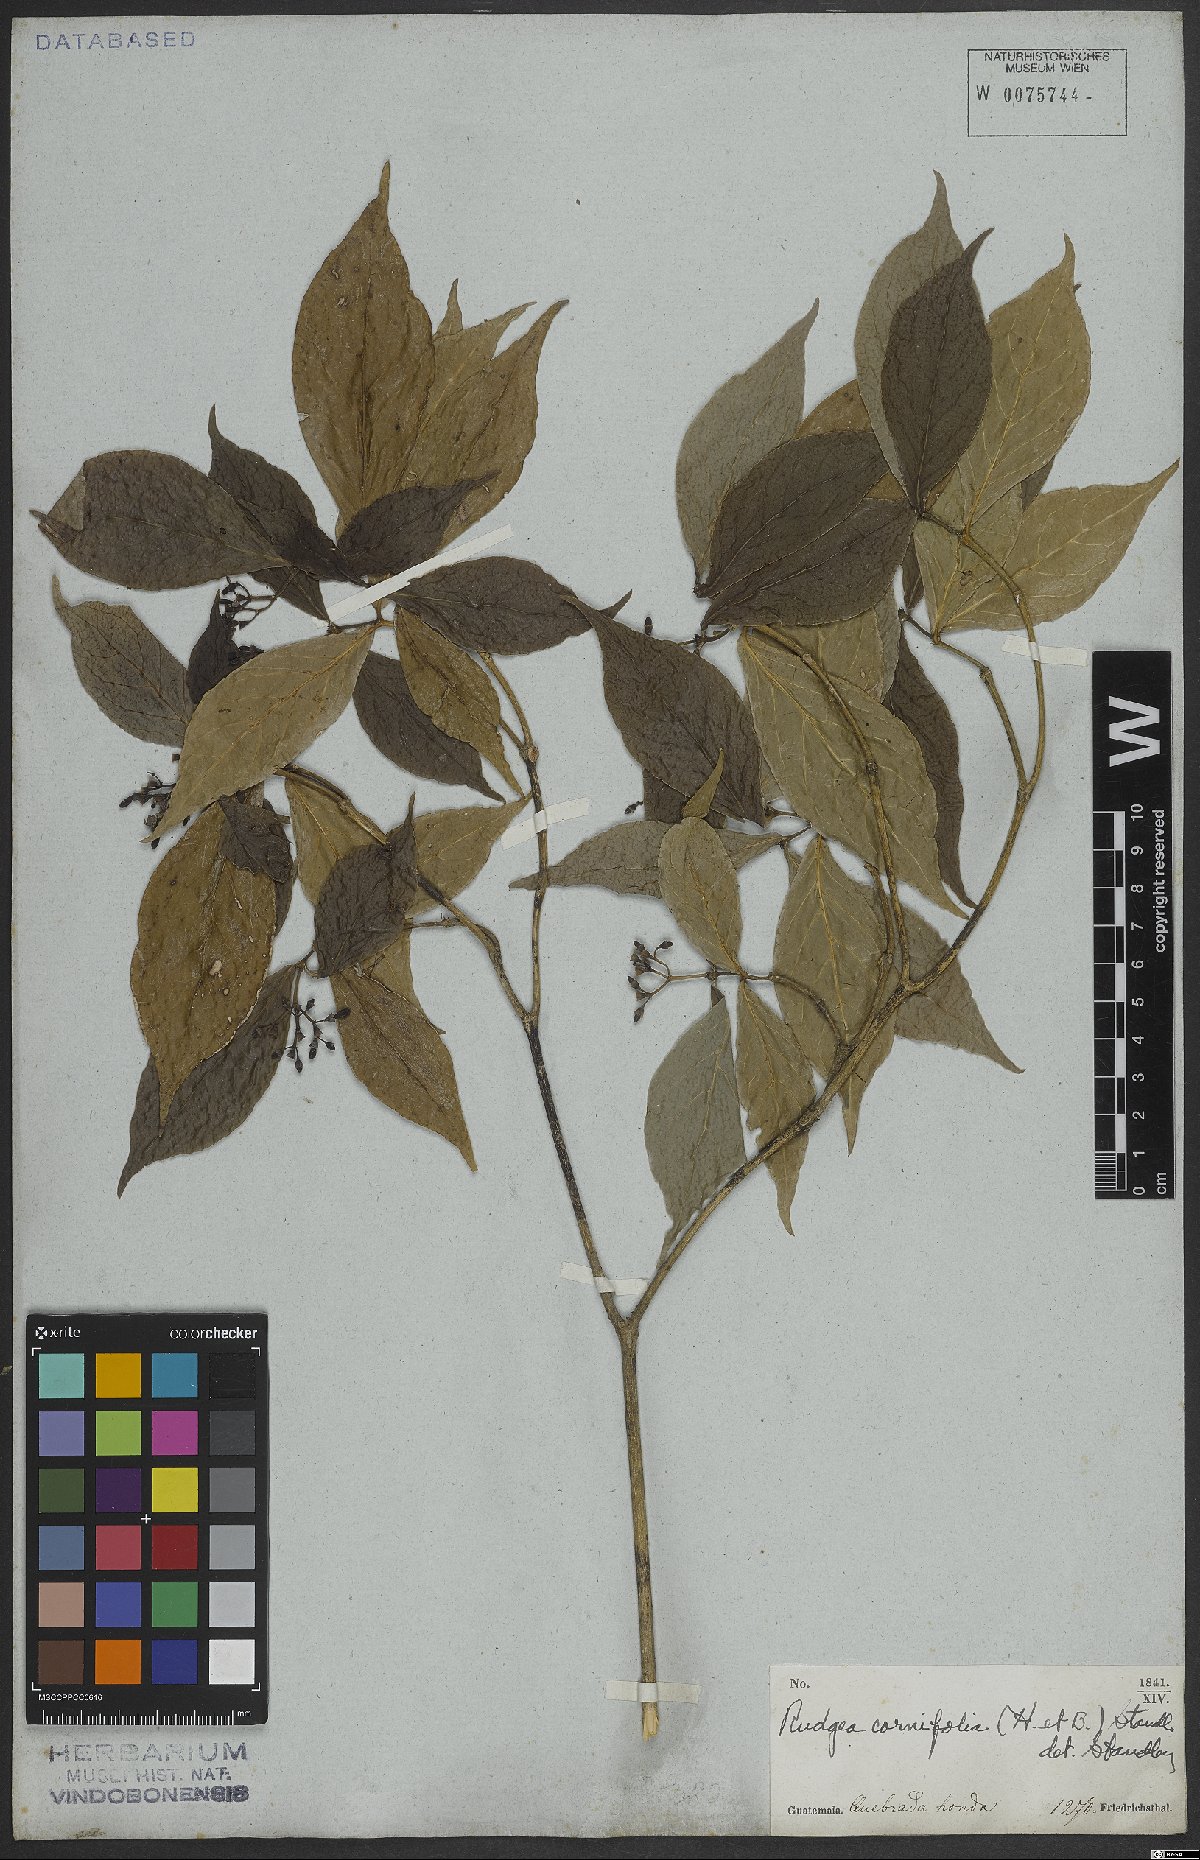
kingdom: Plantae
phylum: Tracheophyta
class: Magnoliopsida
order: Gentianales
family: Rubiaceae
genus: Rudgea
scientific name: Rudgea cornifolia
